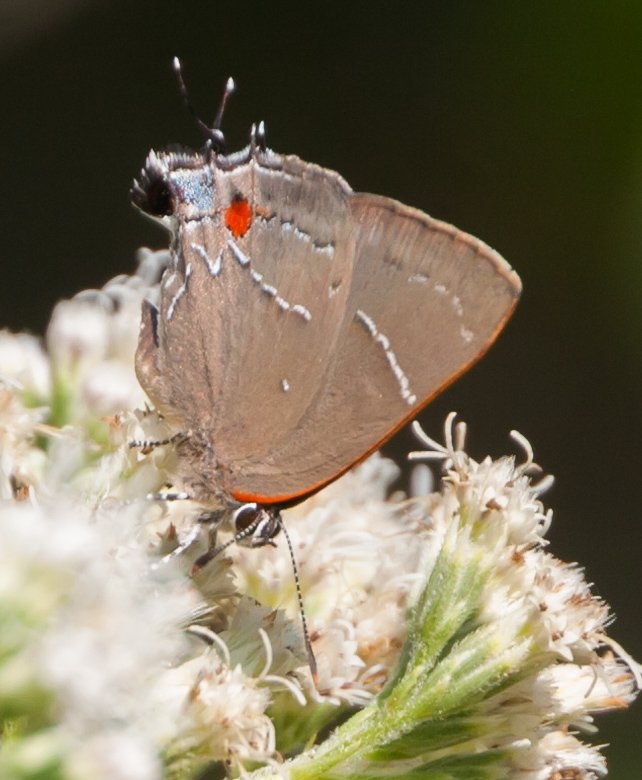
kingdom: Animalia
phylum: Arthropoda
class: Insecta
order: Lepidoptera
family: Lycaenidae
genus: Parrhasius
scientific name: Parrhasius m-album
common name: White-m Hairstreak
